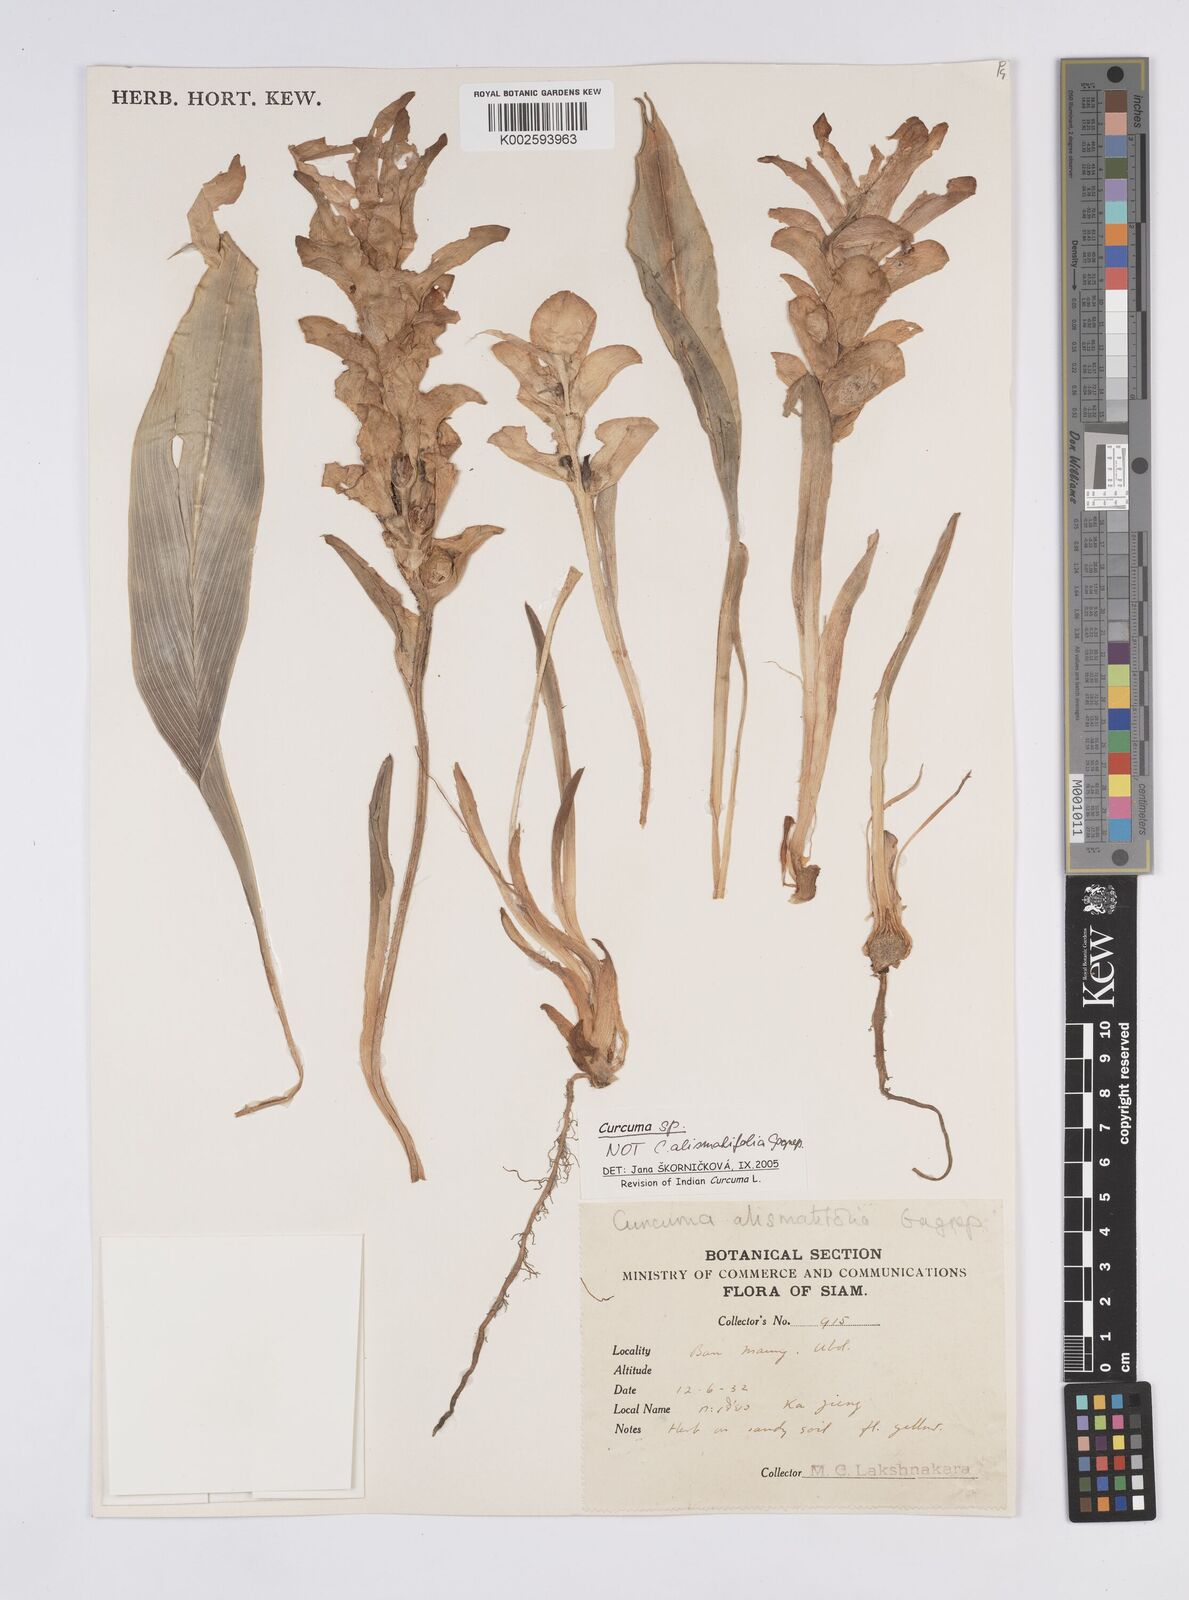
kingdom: Plantae
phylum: Tracheophyta
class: Liliopsida
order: Zingiberales
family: Zingiberaceae
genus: Curcuma
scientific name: Curcuma
